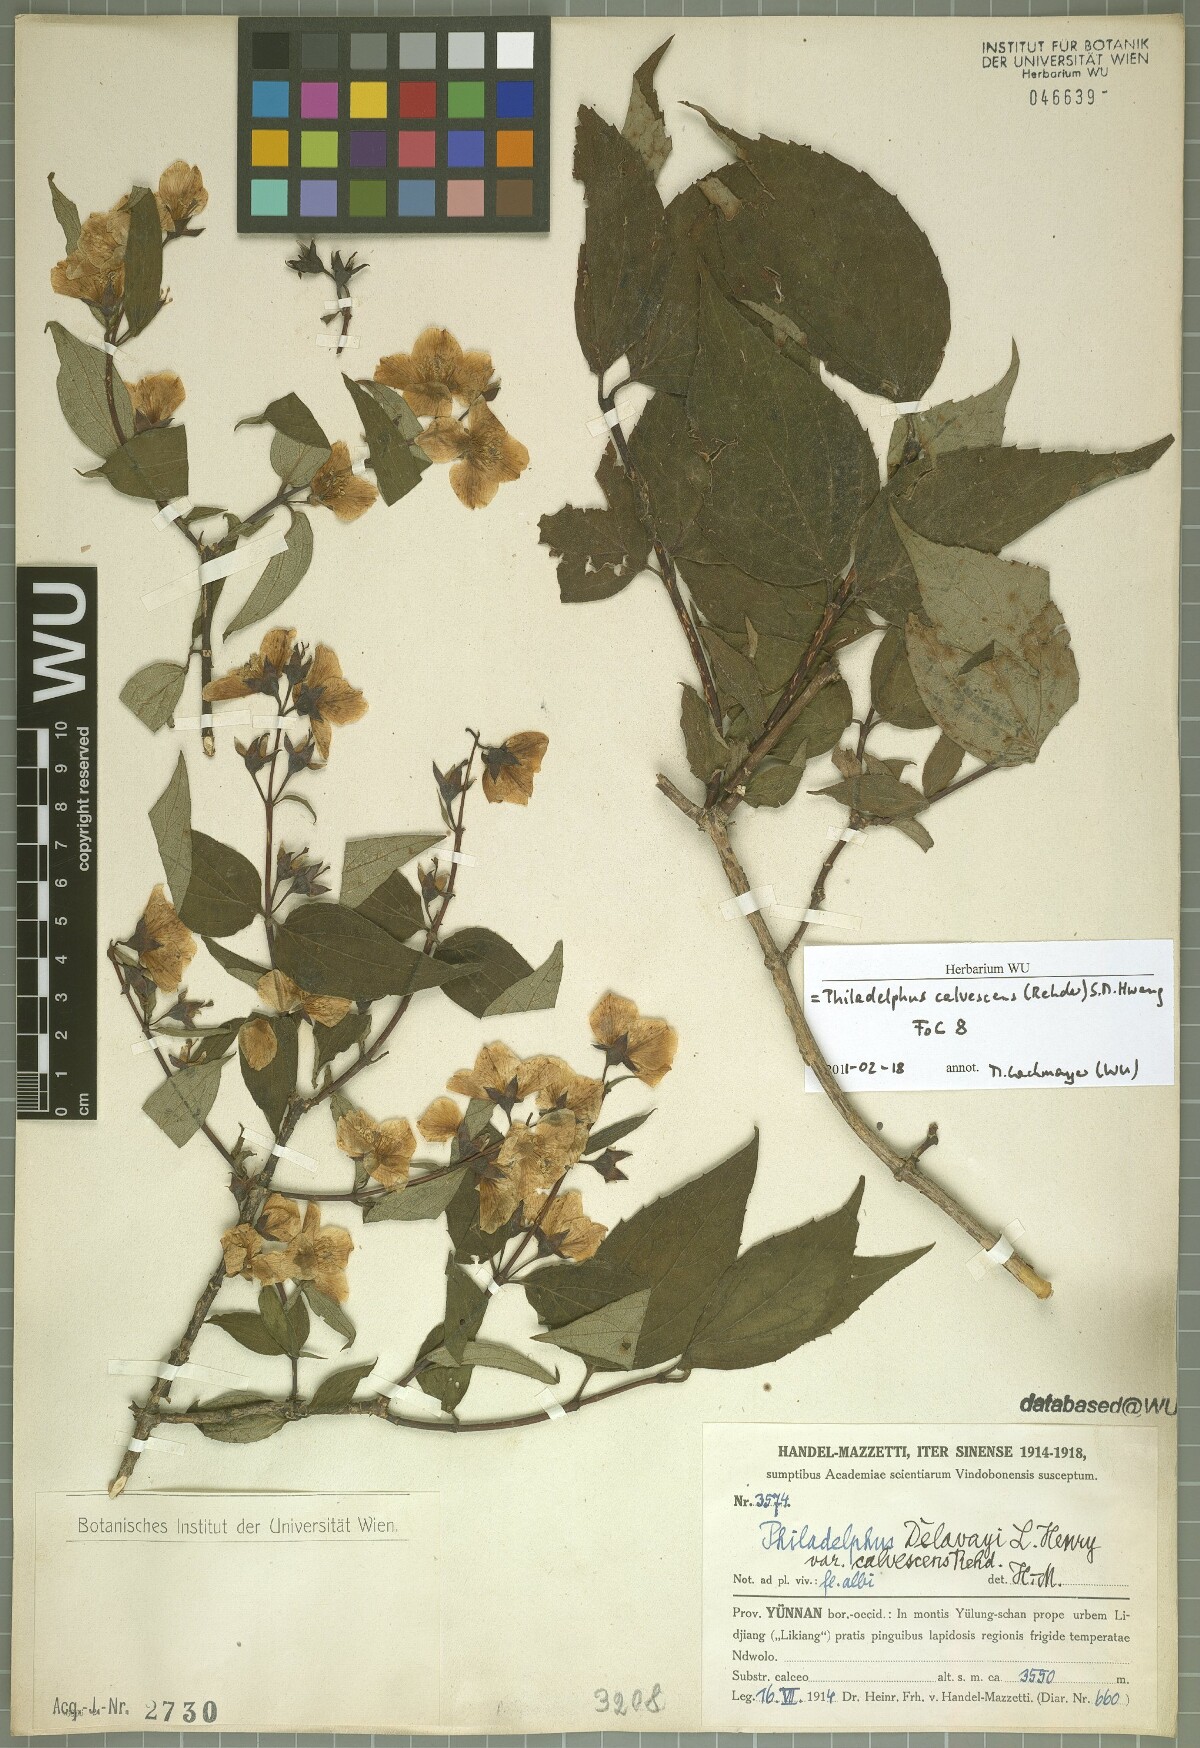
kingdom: Plantae
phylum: Tracheophyta
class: Magnoliopsida
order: Cornales
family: Hydrangeaceae
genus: Philadelphus
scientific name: Philadelphus calvescens
